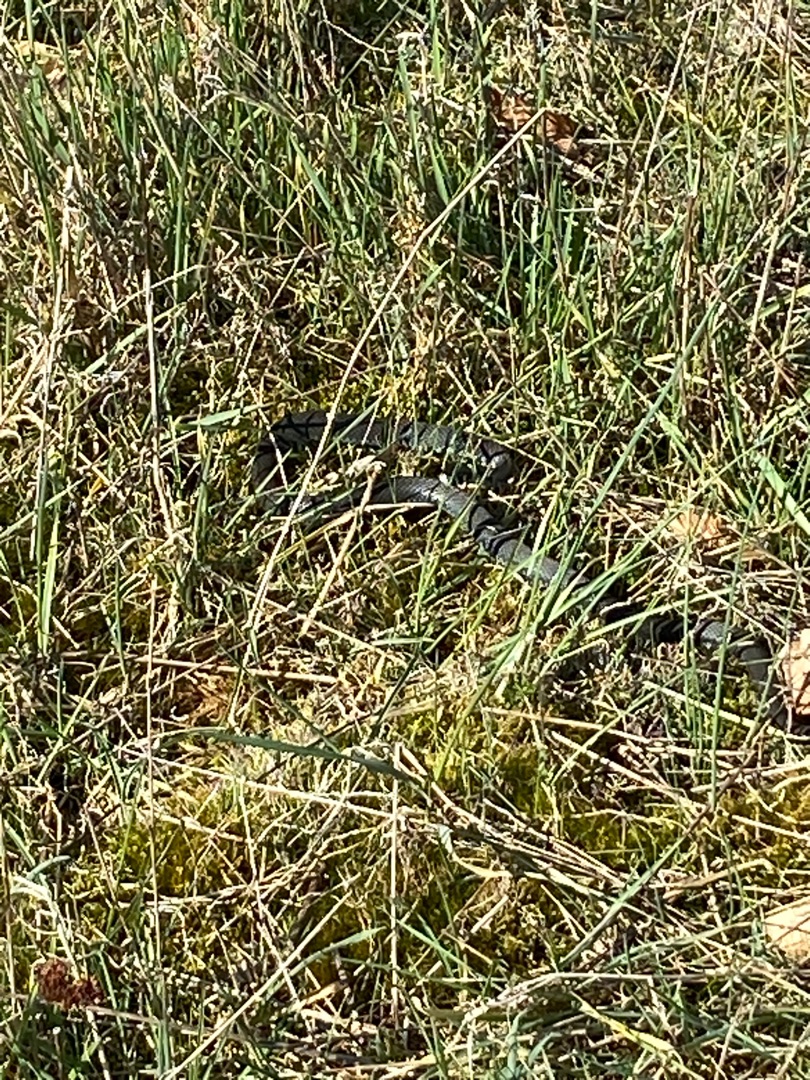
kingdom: Animalia
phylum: Chordata
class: Squamata
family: Colubridae
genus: Natrix
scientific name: Natrix natrix
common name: Snog
